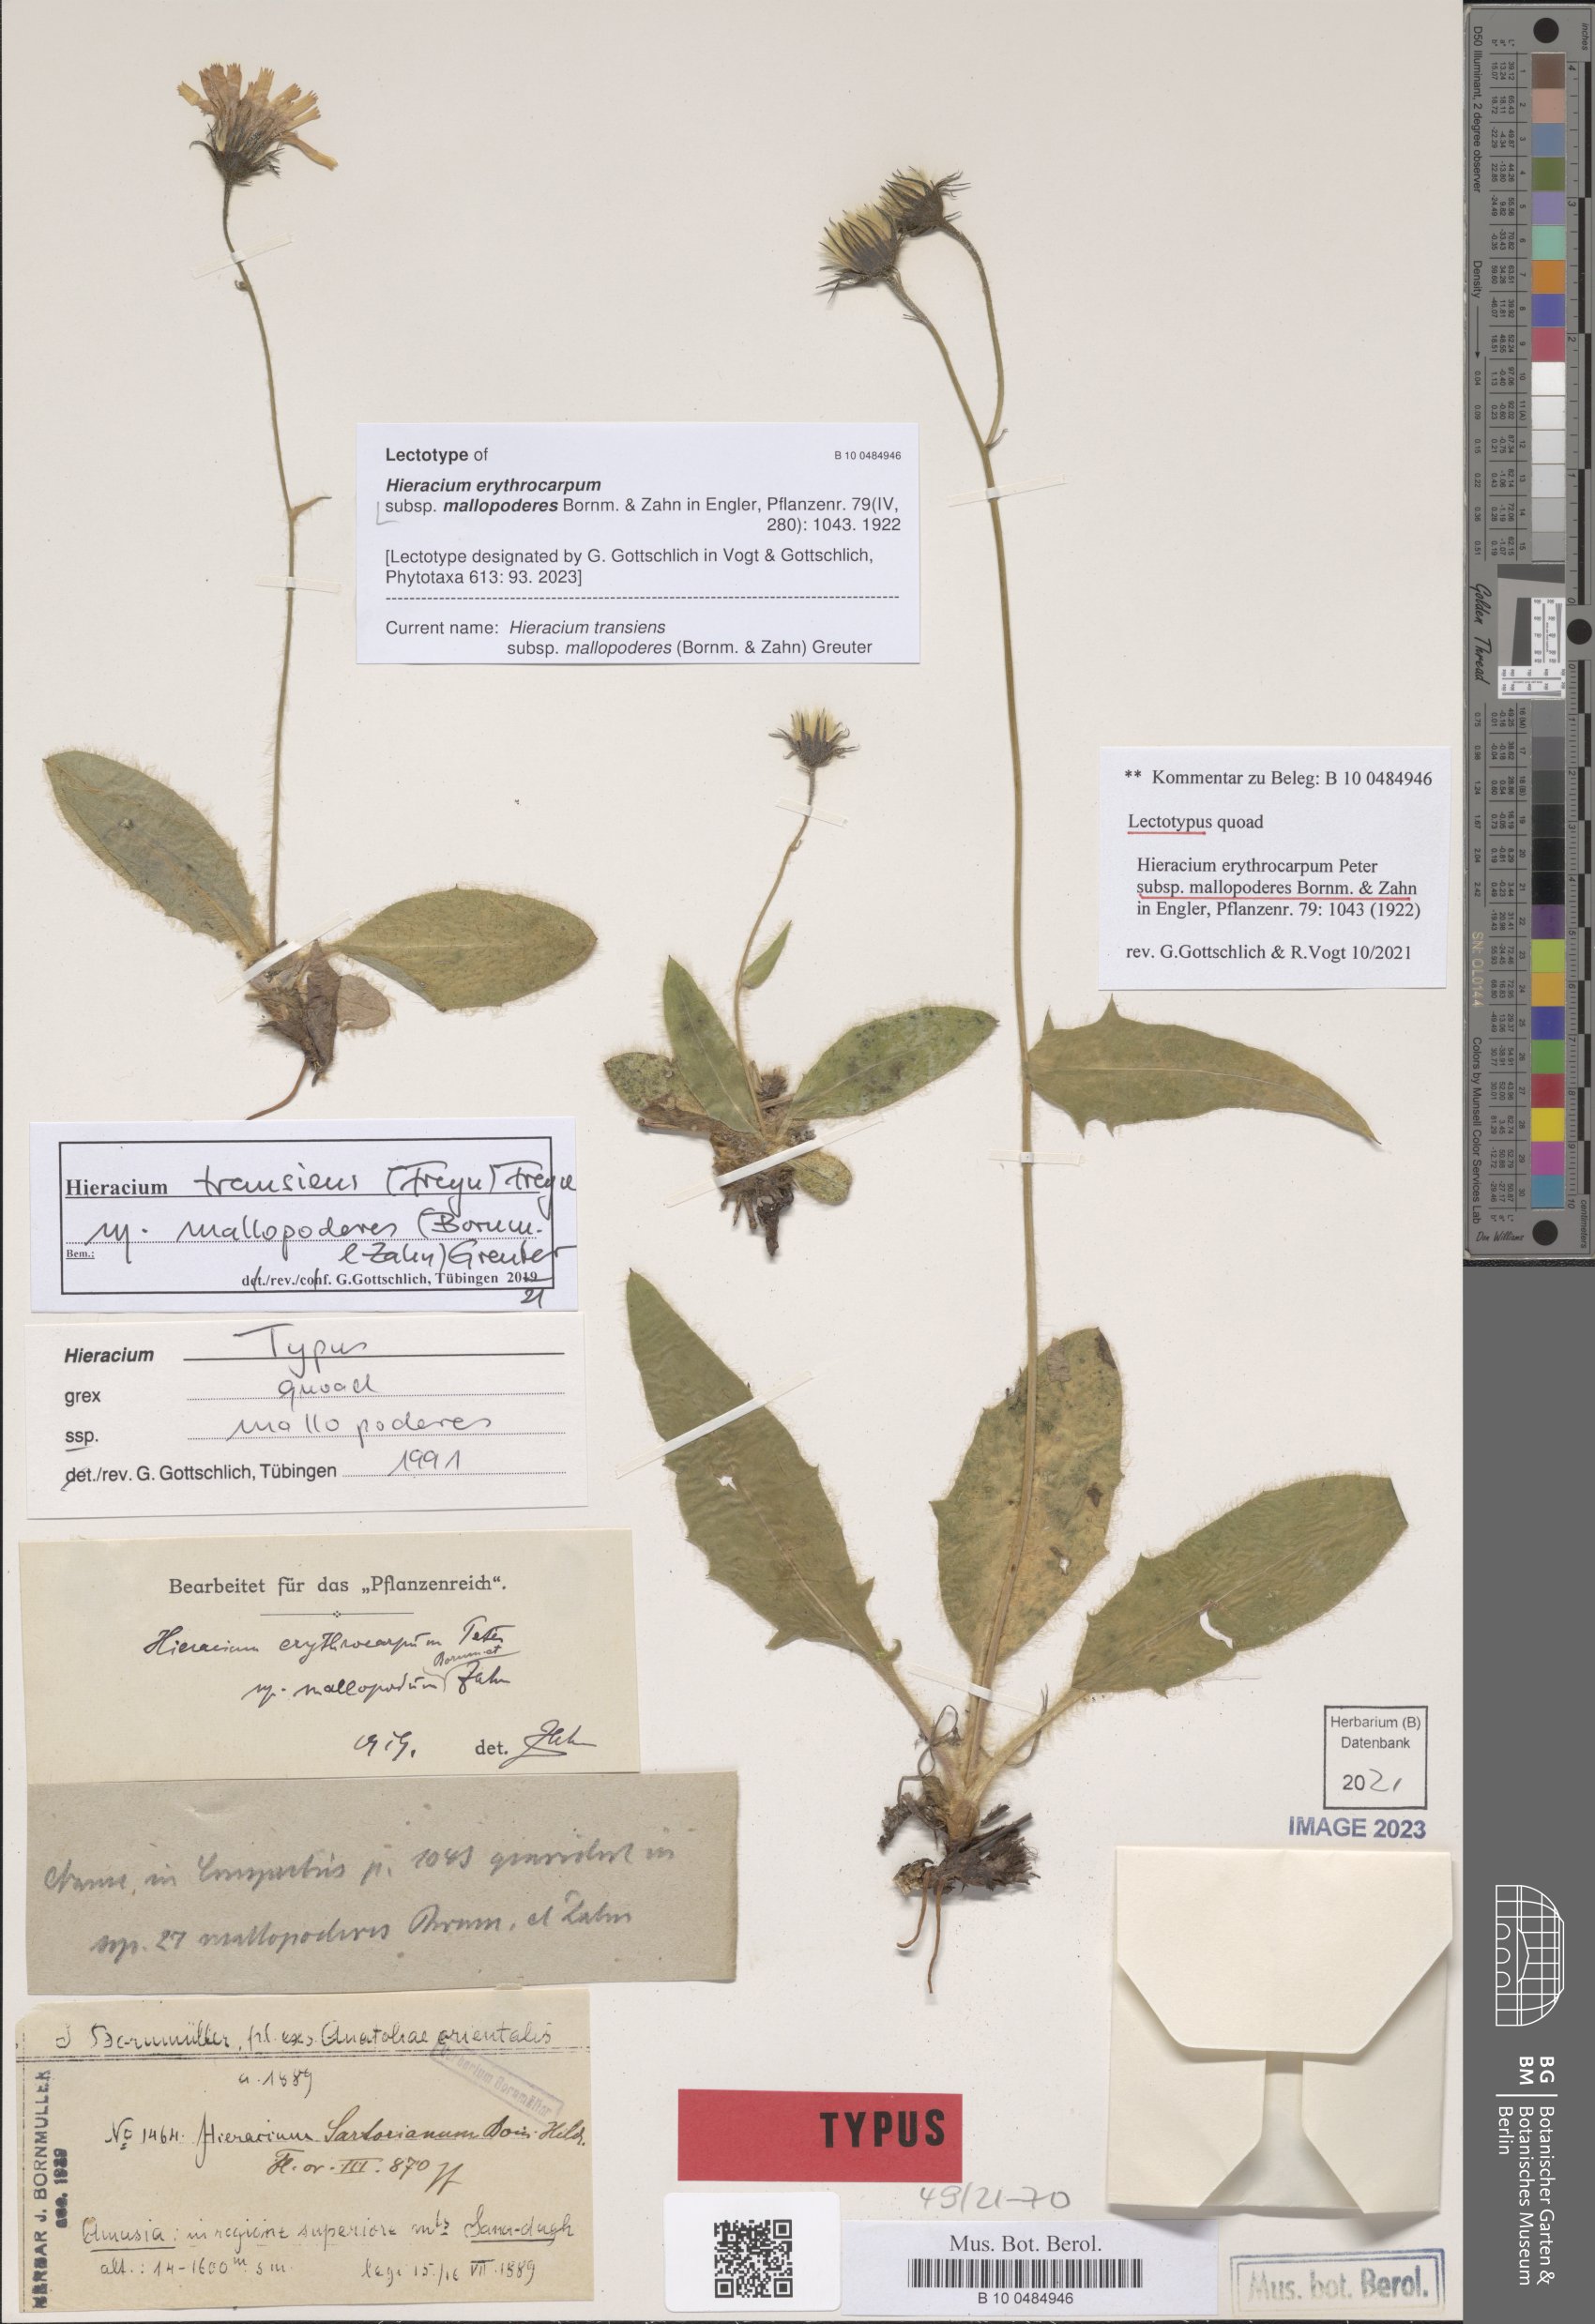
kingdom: Plantae
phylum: Tracheophyta
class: Magnoliopsida
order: Asterales
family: Asteraceae
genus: Hieracium
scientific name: Hieracium transiens
